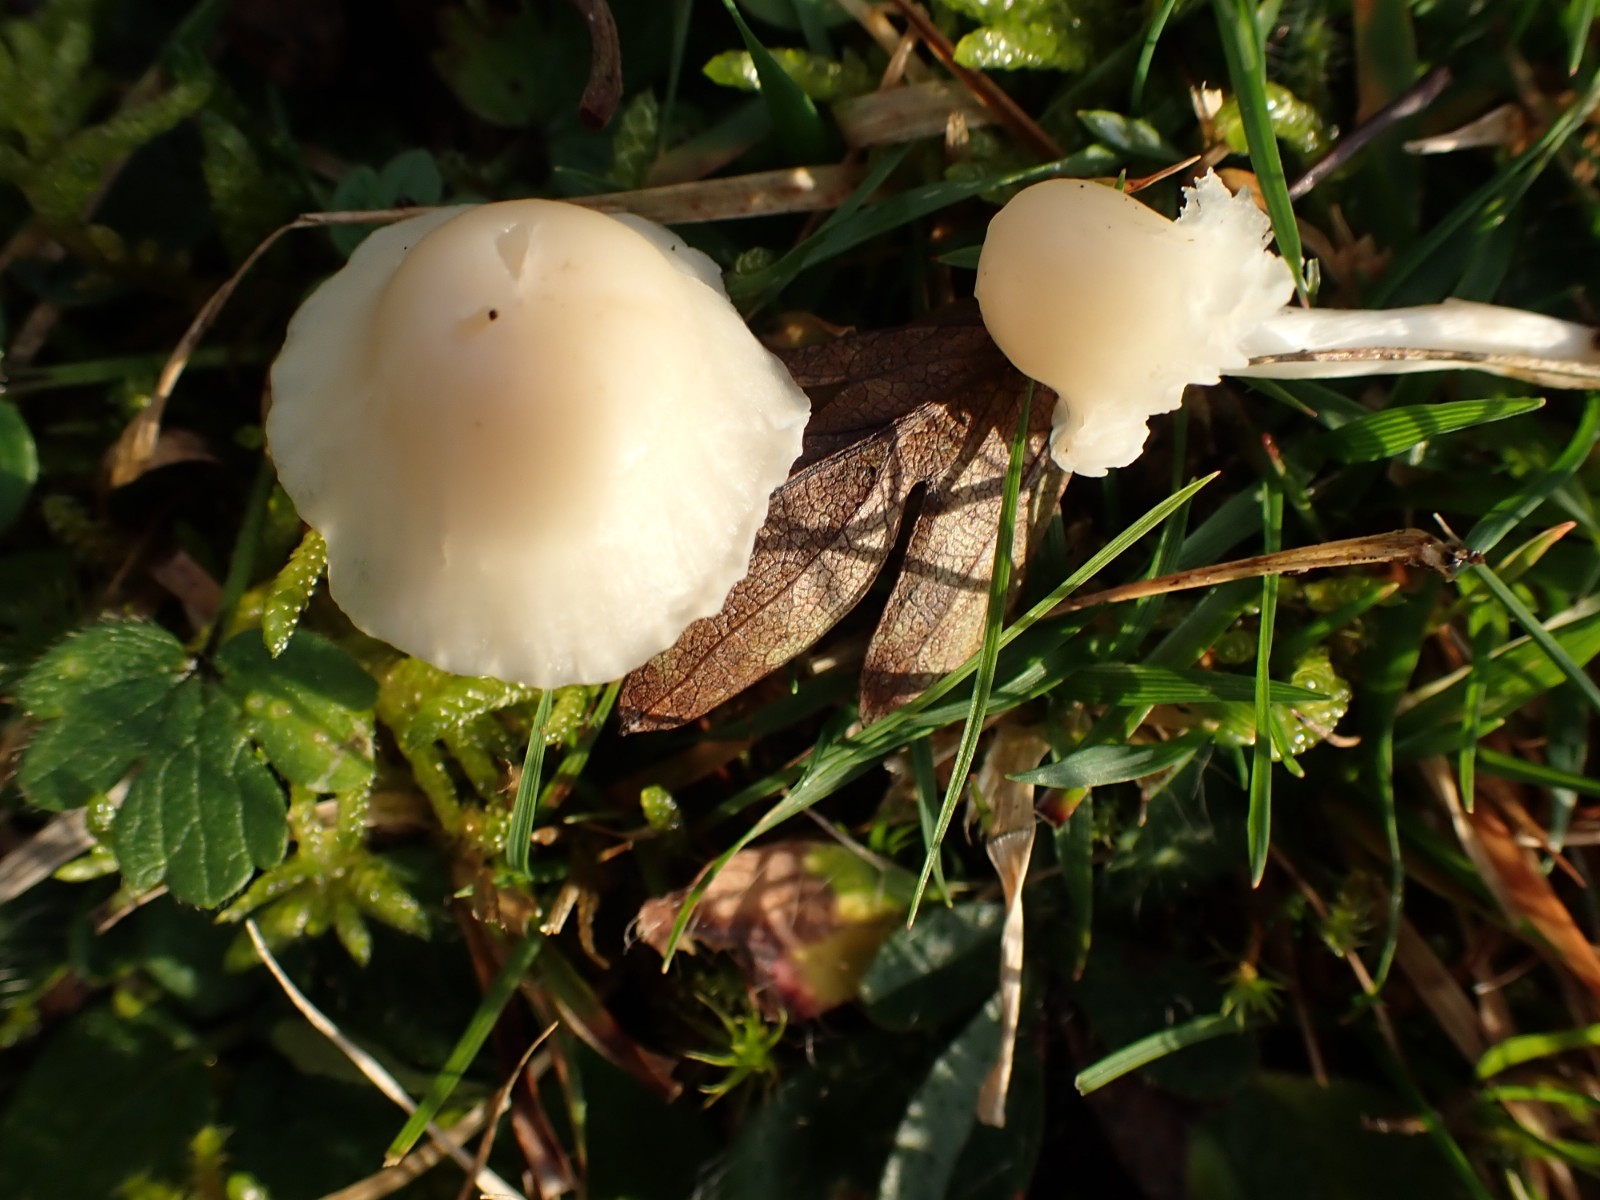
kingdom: Fungi
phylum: Basidiomycota
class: Agaricomycetes
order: Agaricales
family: Hygrophoraceae
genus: Cuphophyllus
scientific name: Cuphophyllus virgineus
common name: snehvid vokshat
